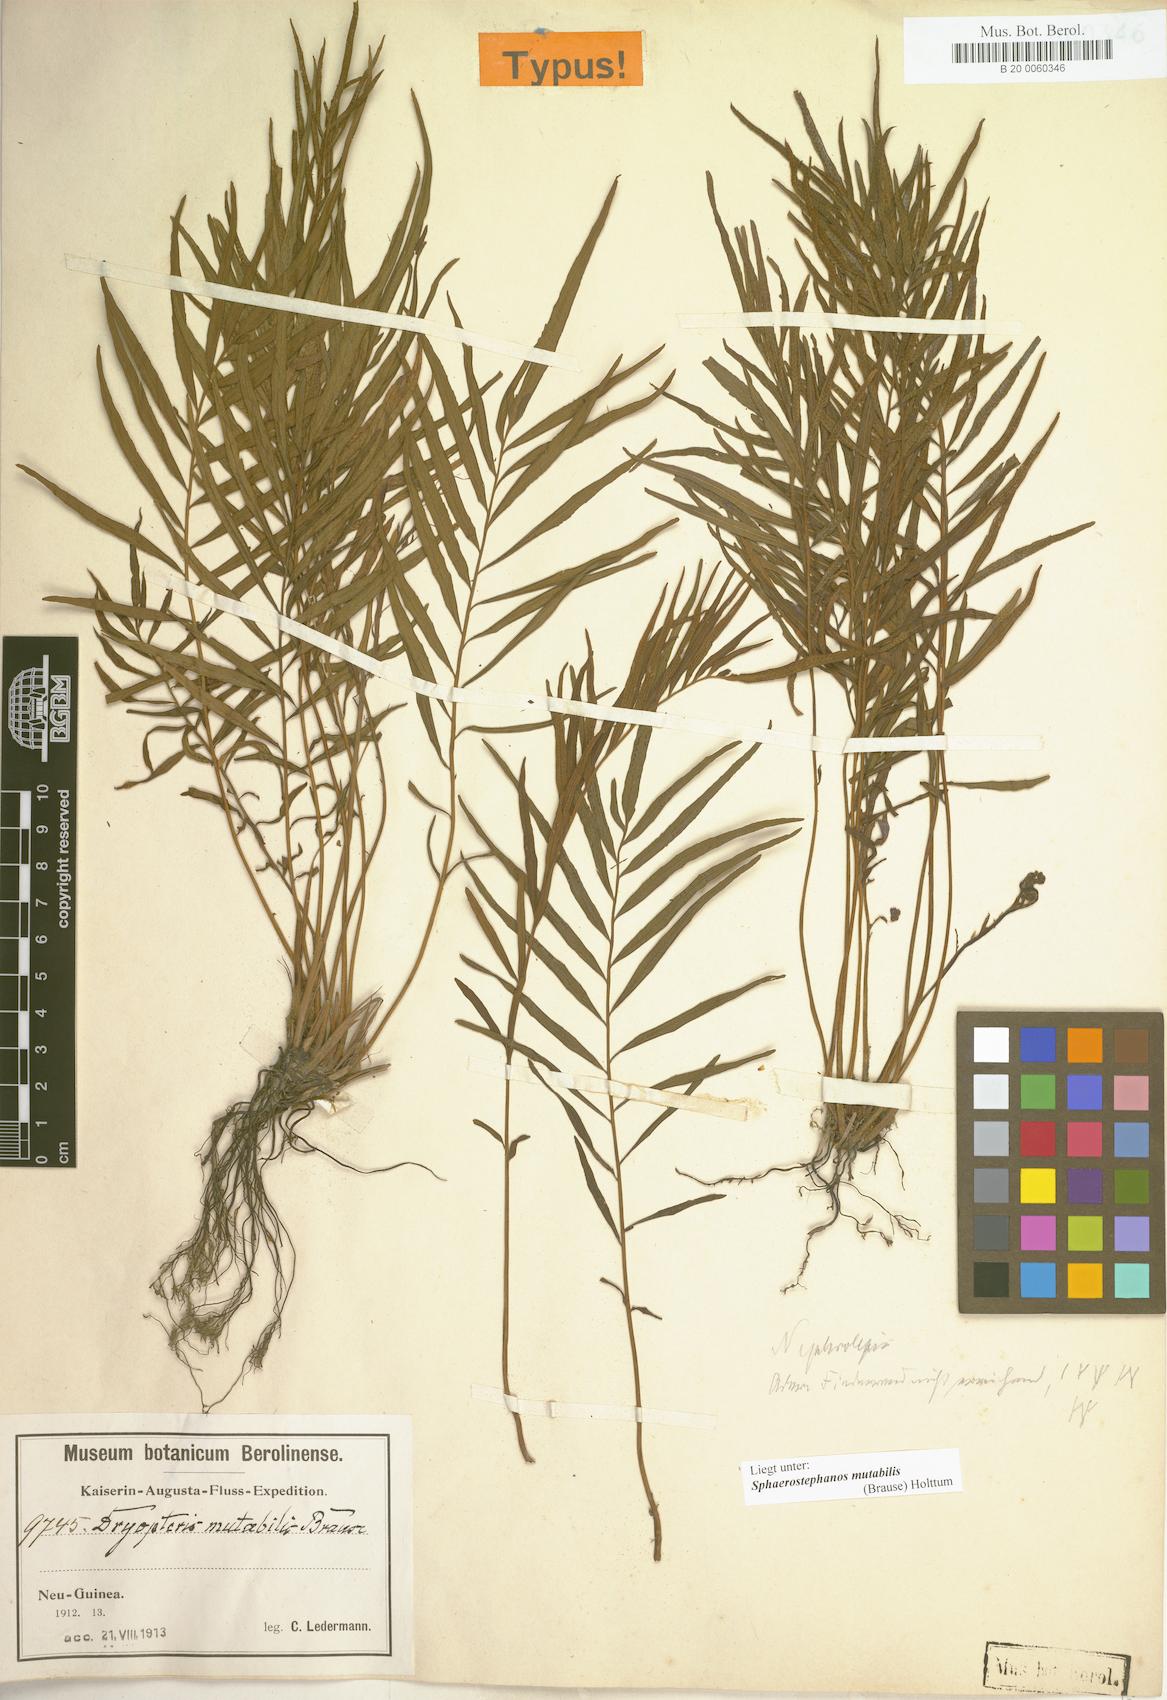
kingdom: Plantae
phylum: Tracheophyta
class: Polypodiopsida
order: Polypodiales
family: Thelypteridaceae
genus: Sphaerostephanos
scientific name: Sphaerostephanos mutabilis
